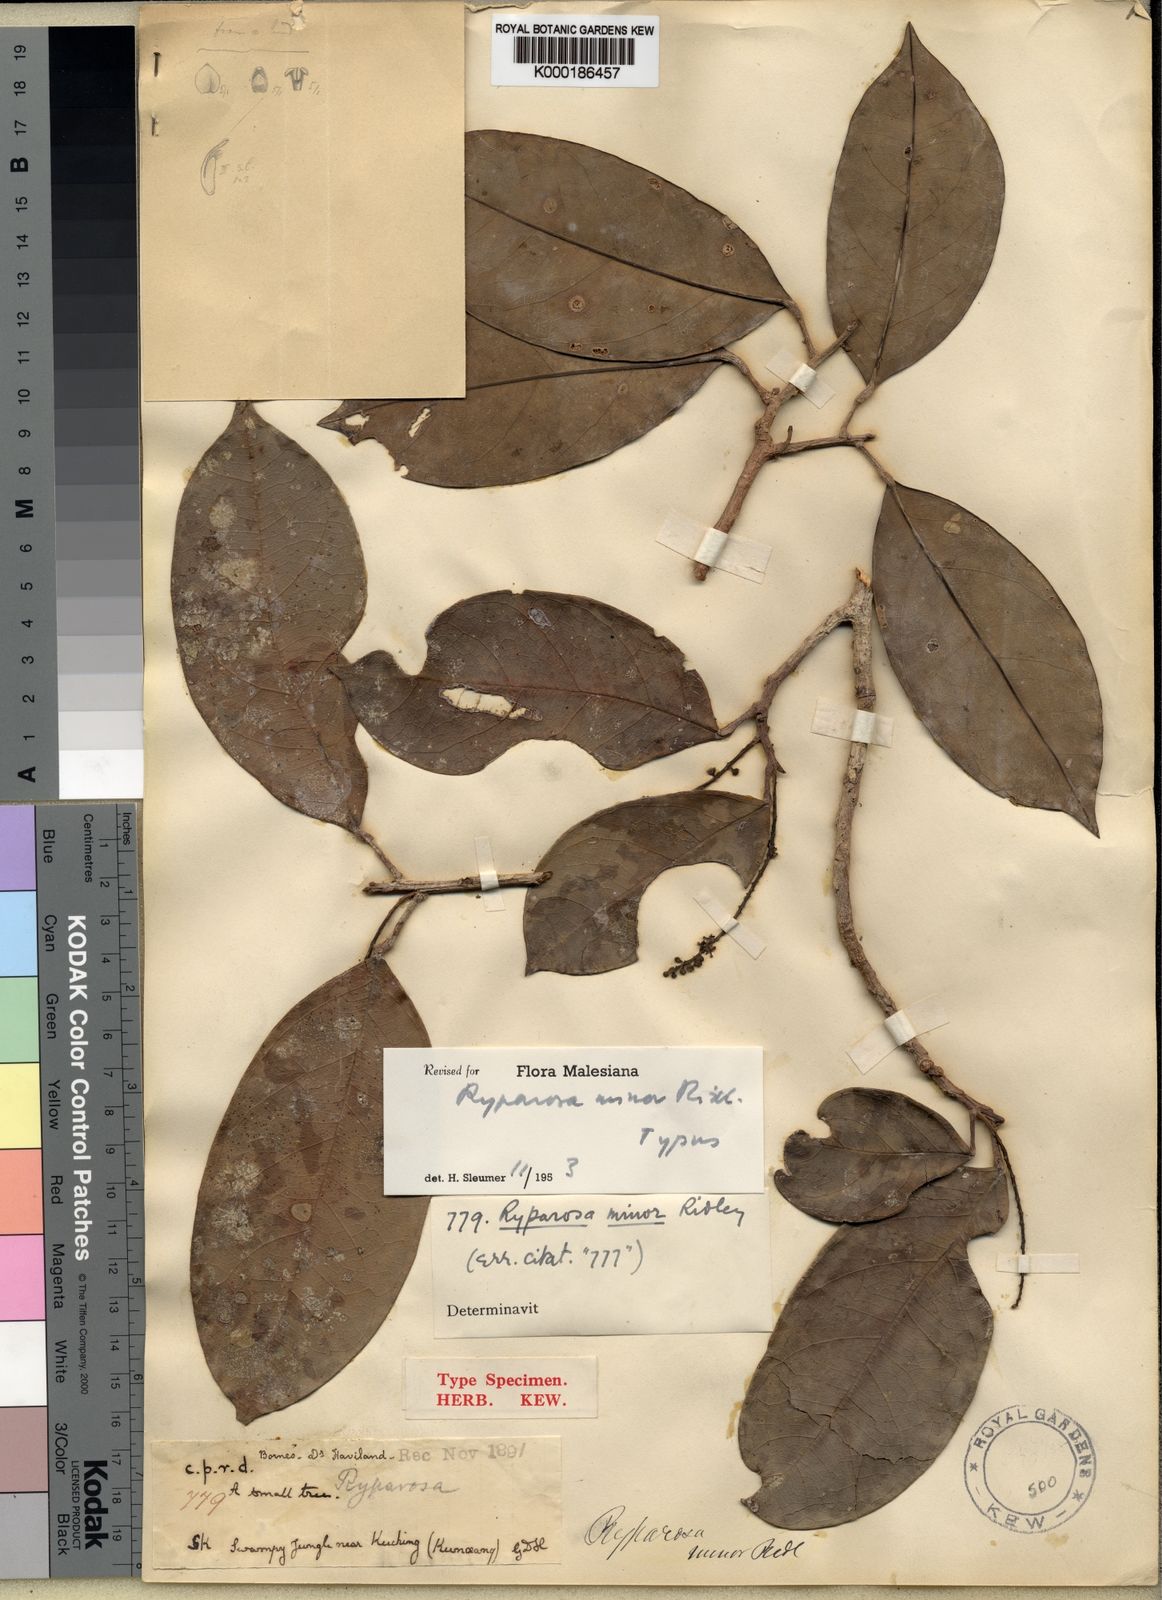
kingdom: Plantae
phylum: Tracheophyta
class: Magnoliopsida
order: Malpighiales
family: Achariaceae
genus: Ryparosa
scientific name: Ryparosa minor
